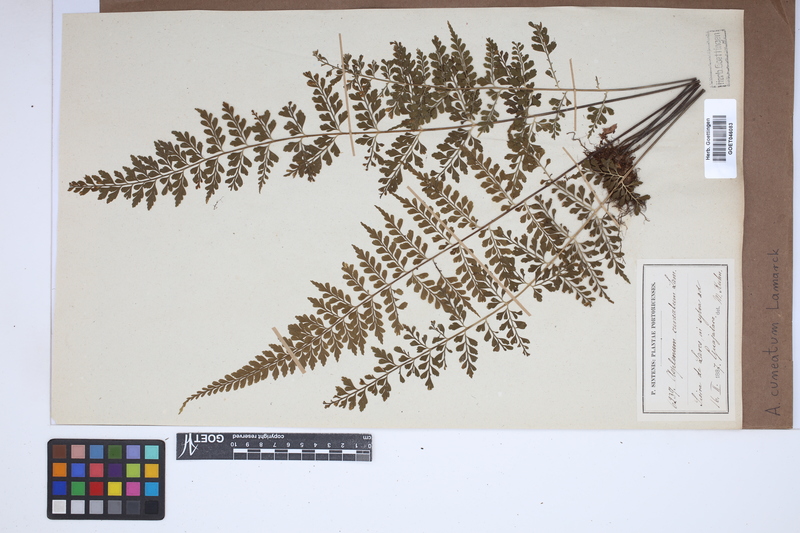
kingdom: Plantae
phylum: Tracheophyta
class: Polypodiopsida
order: Polypodiales
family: Aspleniaceae
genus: Asplenium
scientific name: Asplenium cuneatum
